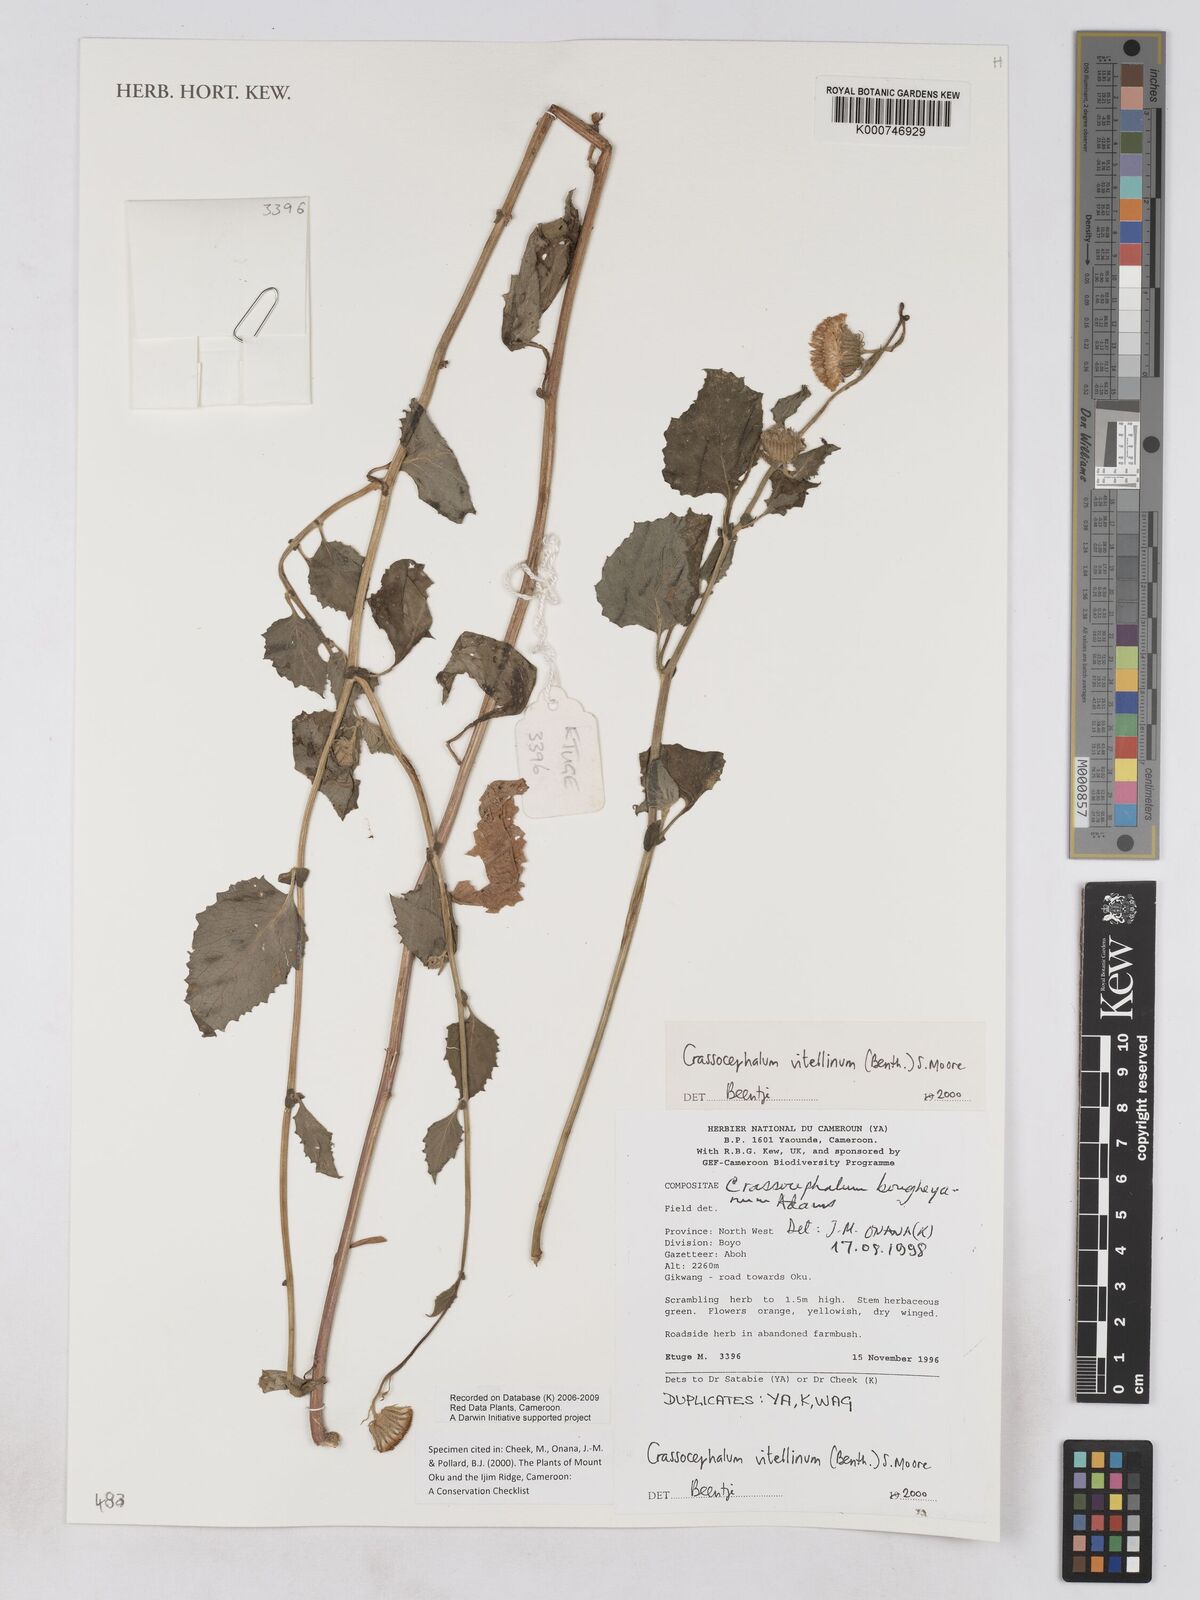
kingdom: Plantae
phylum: Tracheophyta
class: Magnoliopsida
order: Asterales
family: Asteraceae
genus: Crassocephalum
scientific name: Crassocephalum vitellinum
